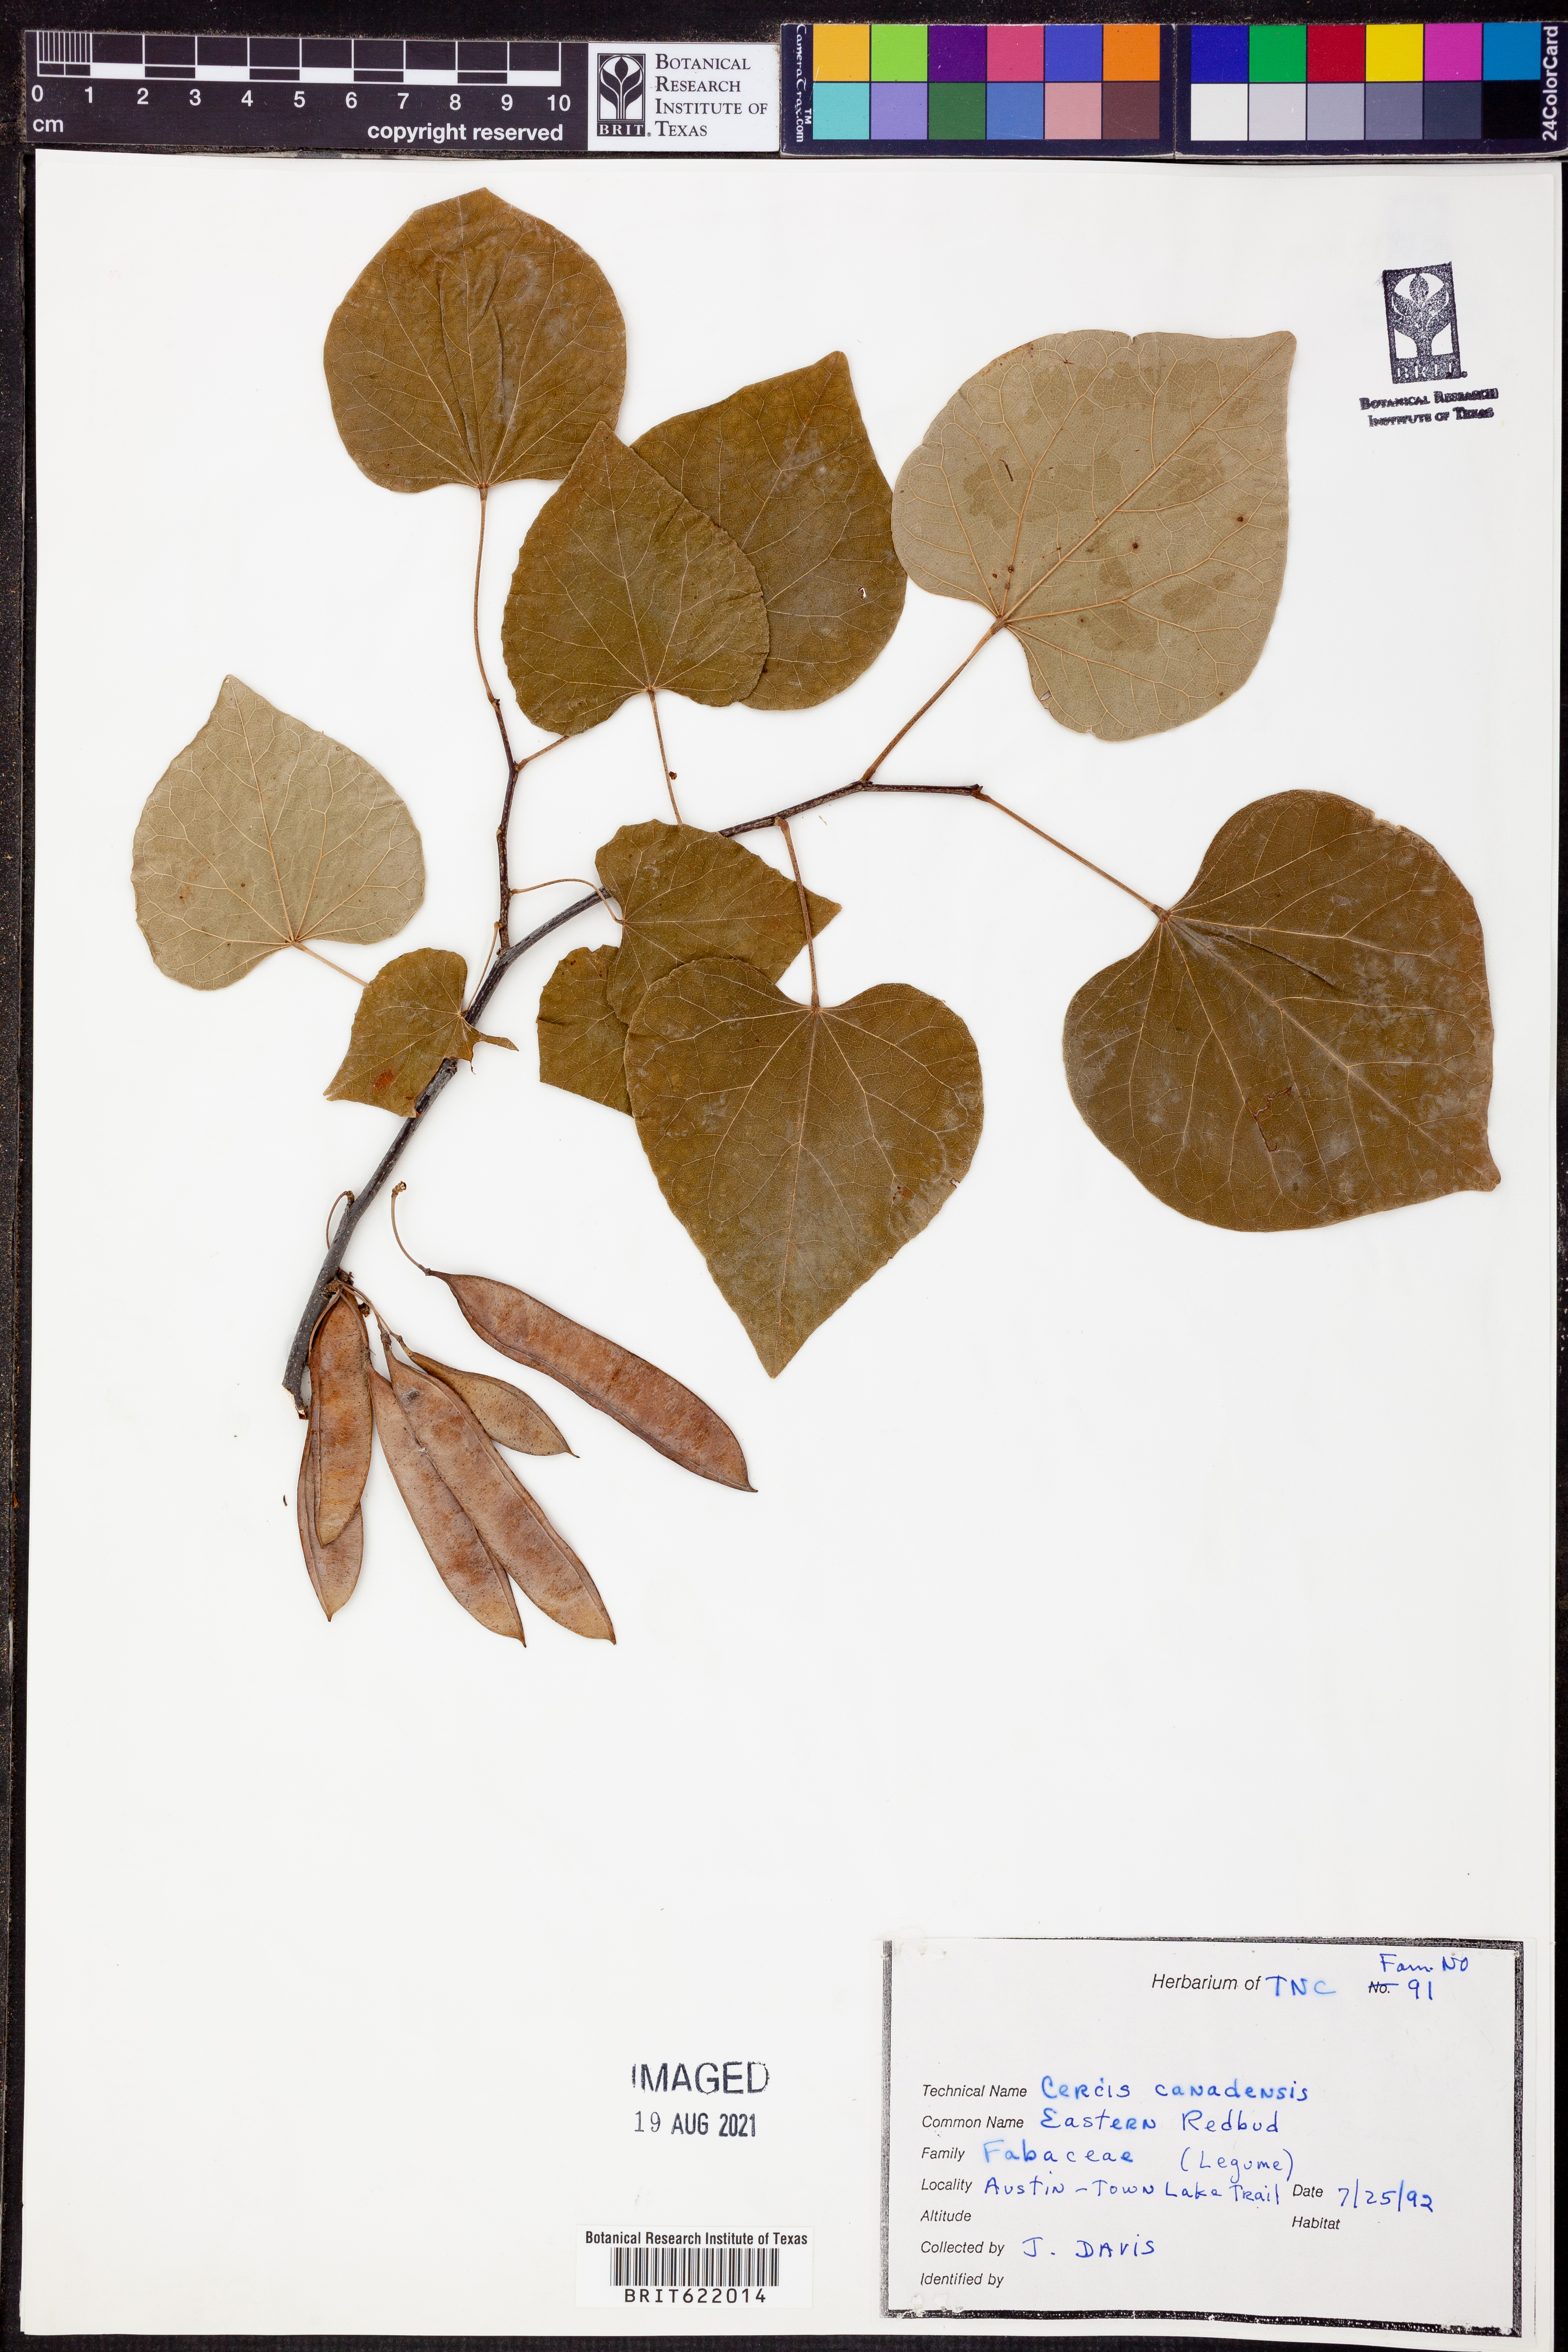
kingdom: Plantae
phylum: Tracheophyta
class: Magnoliopsida
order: Fabales
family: Fabaceae
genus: Cercis
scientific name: Cercis canadensis
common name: Eastern redbud
